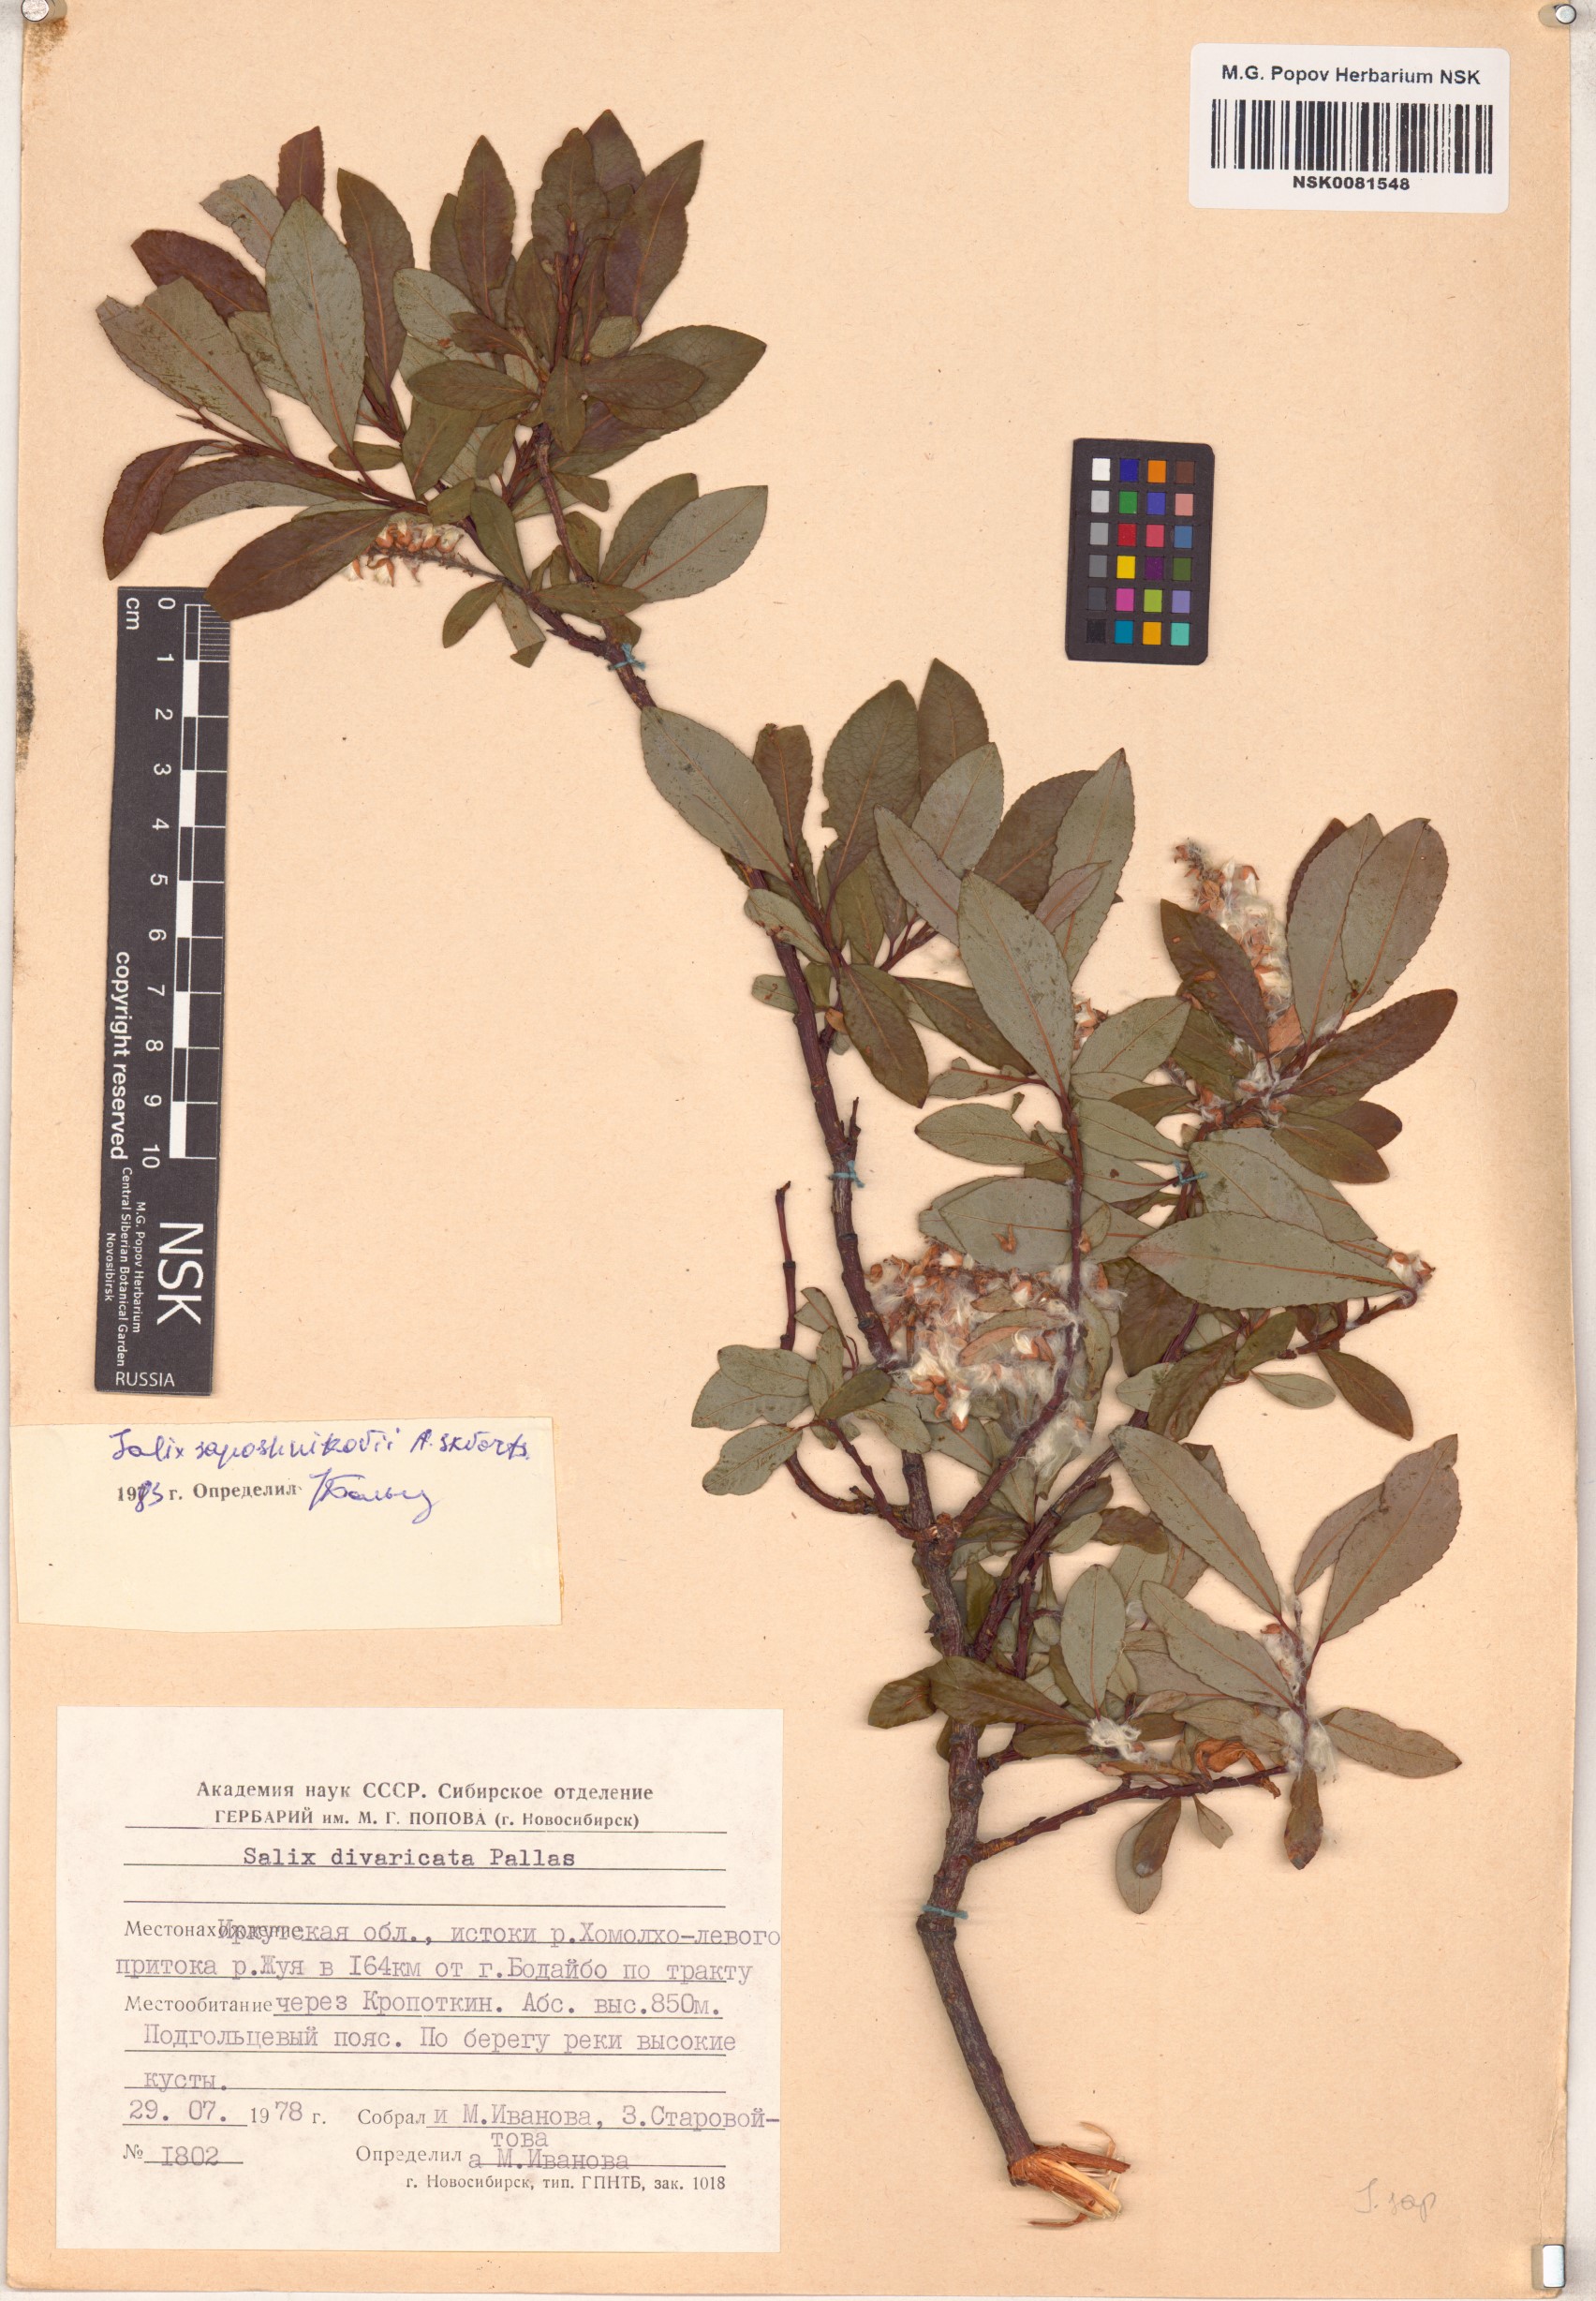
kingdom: Plantae
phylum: Tracheophyta
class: Magnoliopsida
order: Malpighiales
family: Salicaceae
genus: Salix
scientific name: Salix saposhnikovii
